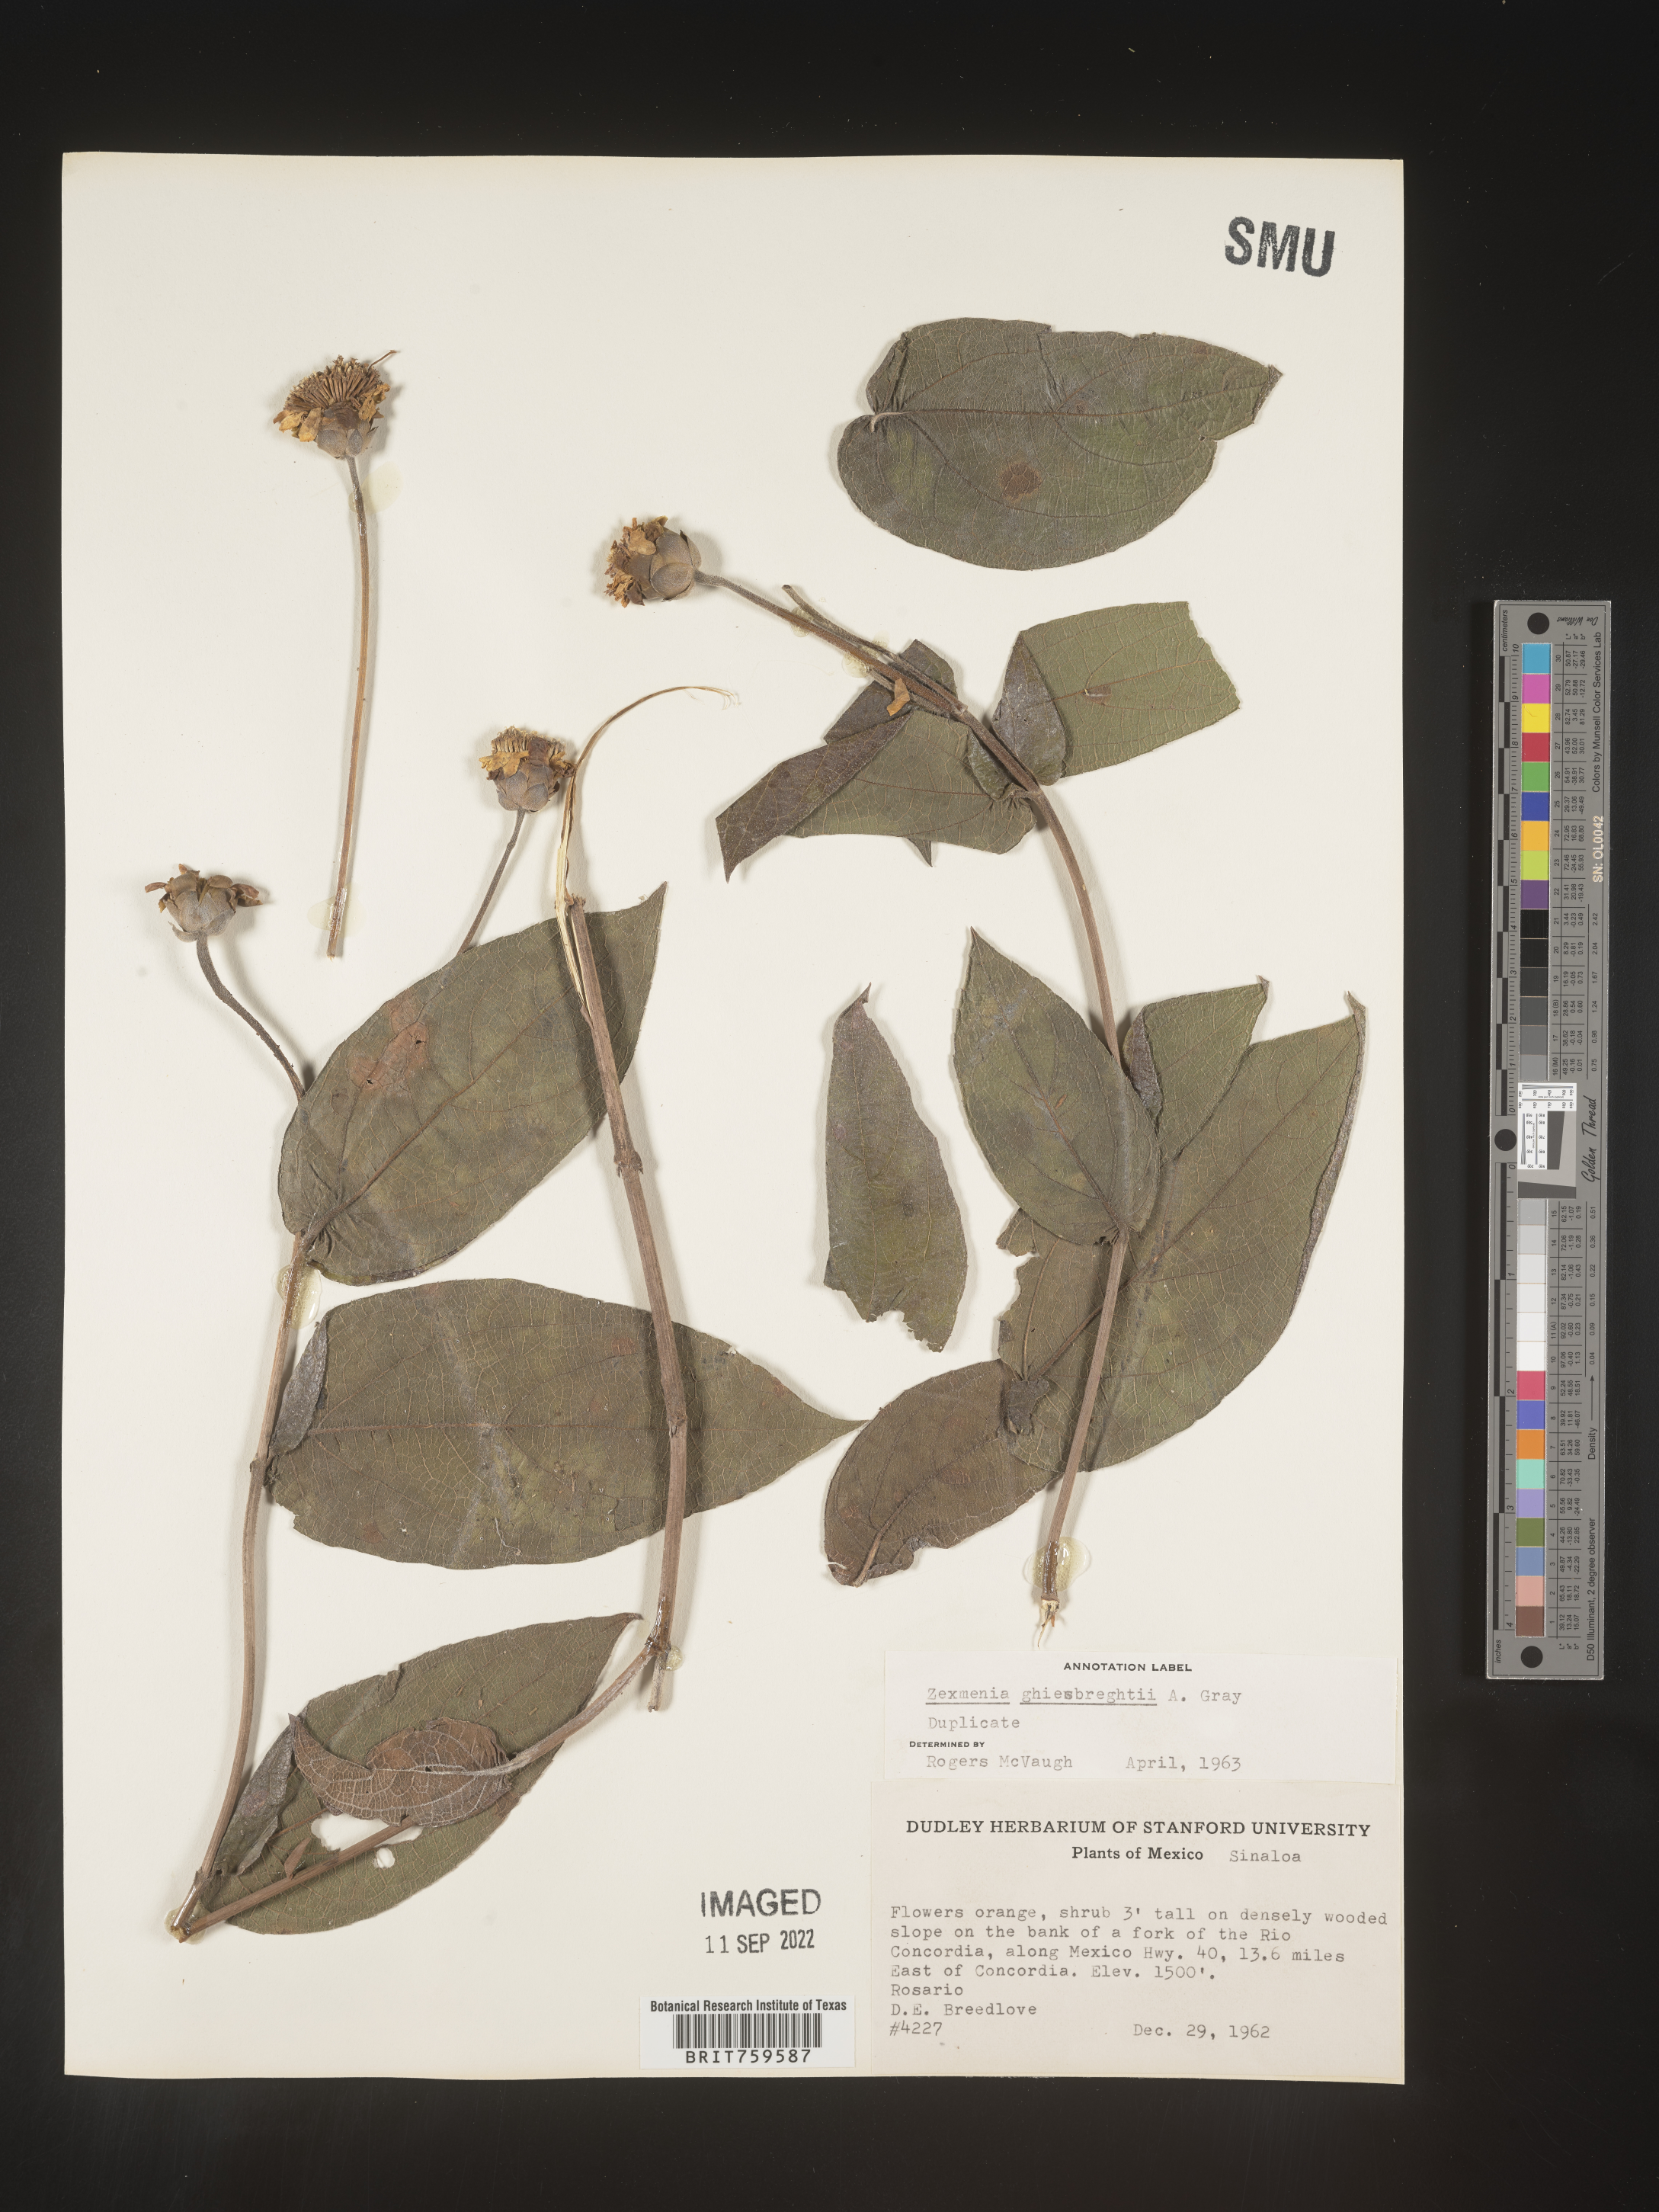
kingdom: Plantae
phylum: Tracheophyta
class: Magnoliopsida
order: Asterales
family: Asteraceae
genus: Zexmenia
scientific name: Zexmenia
